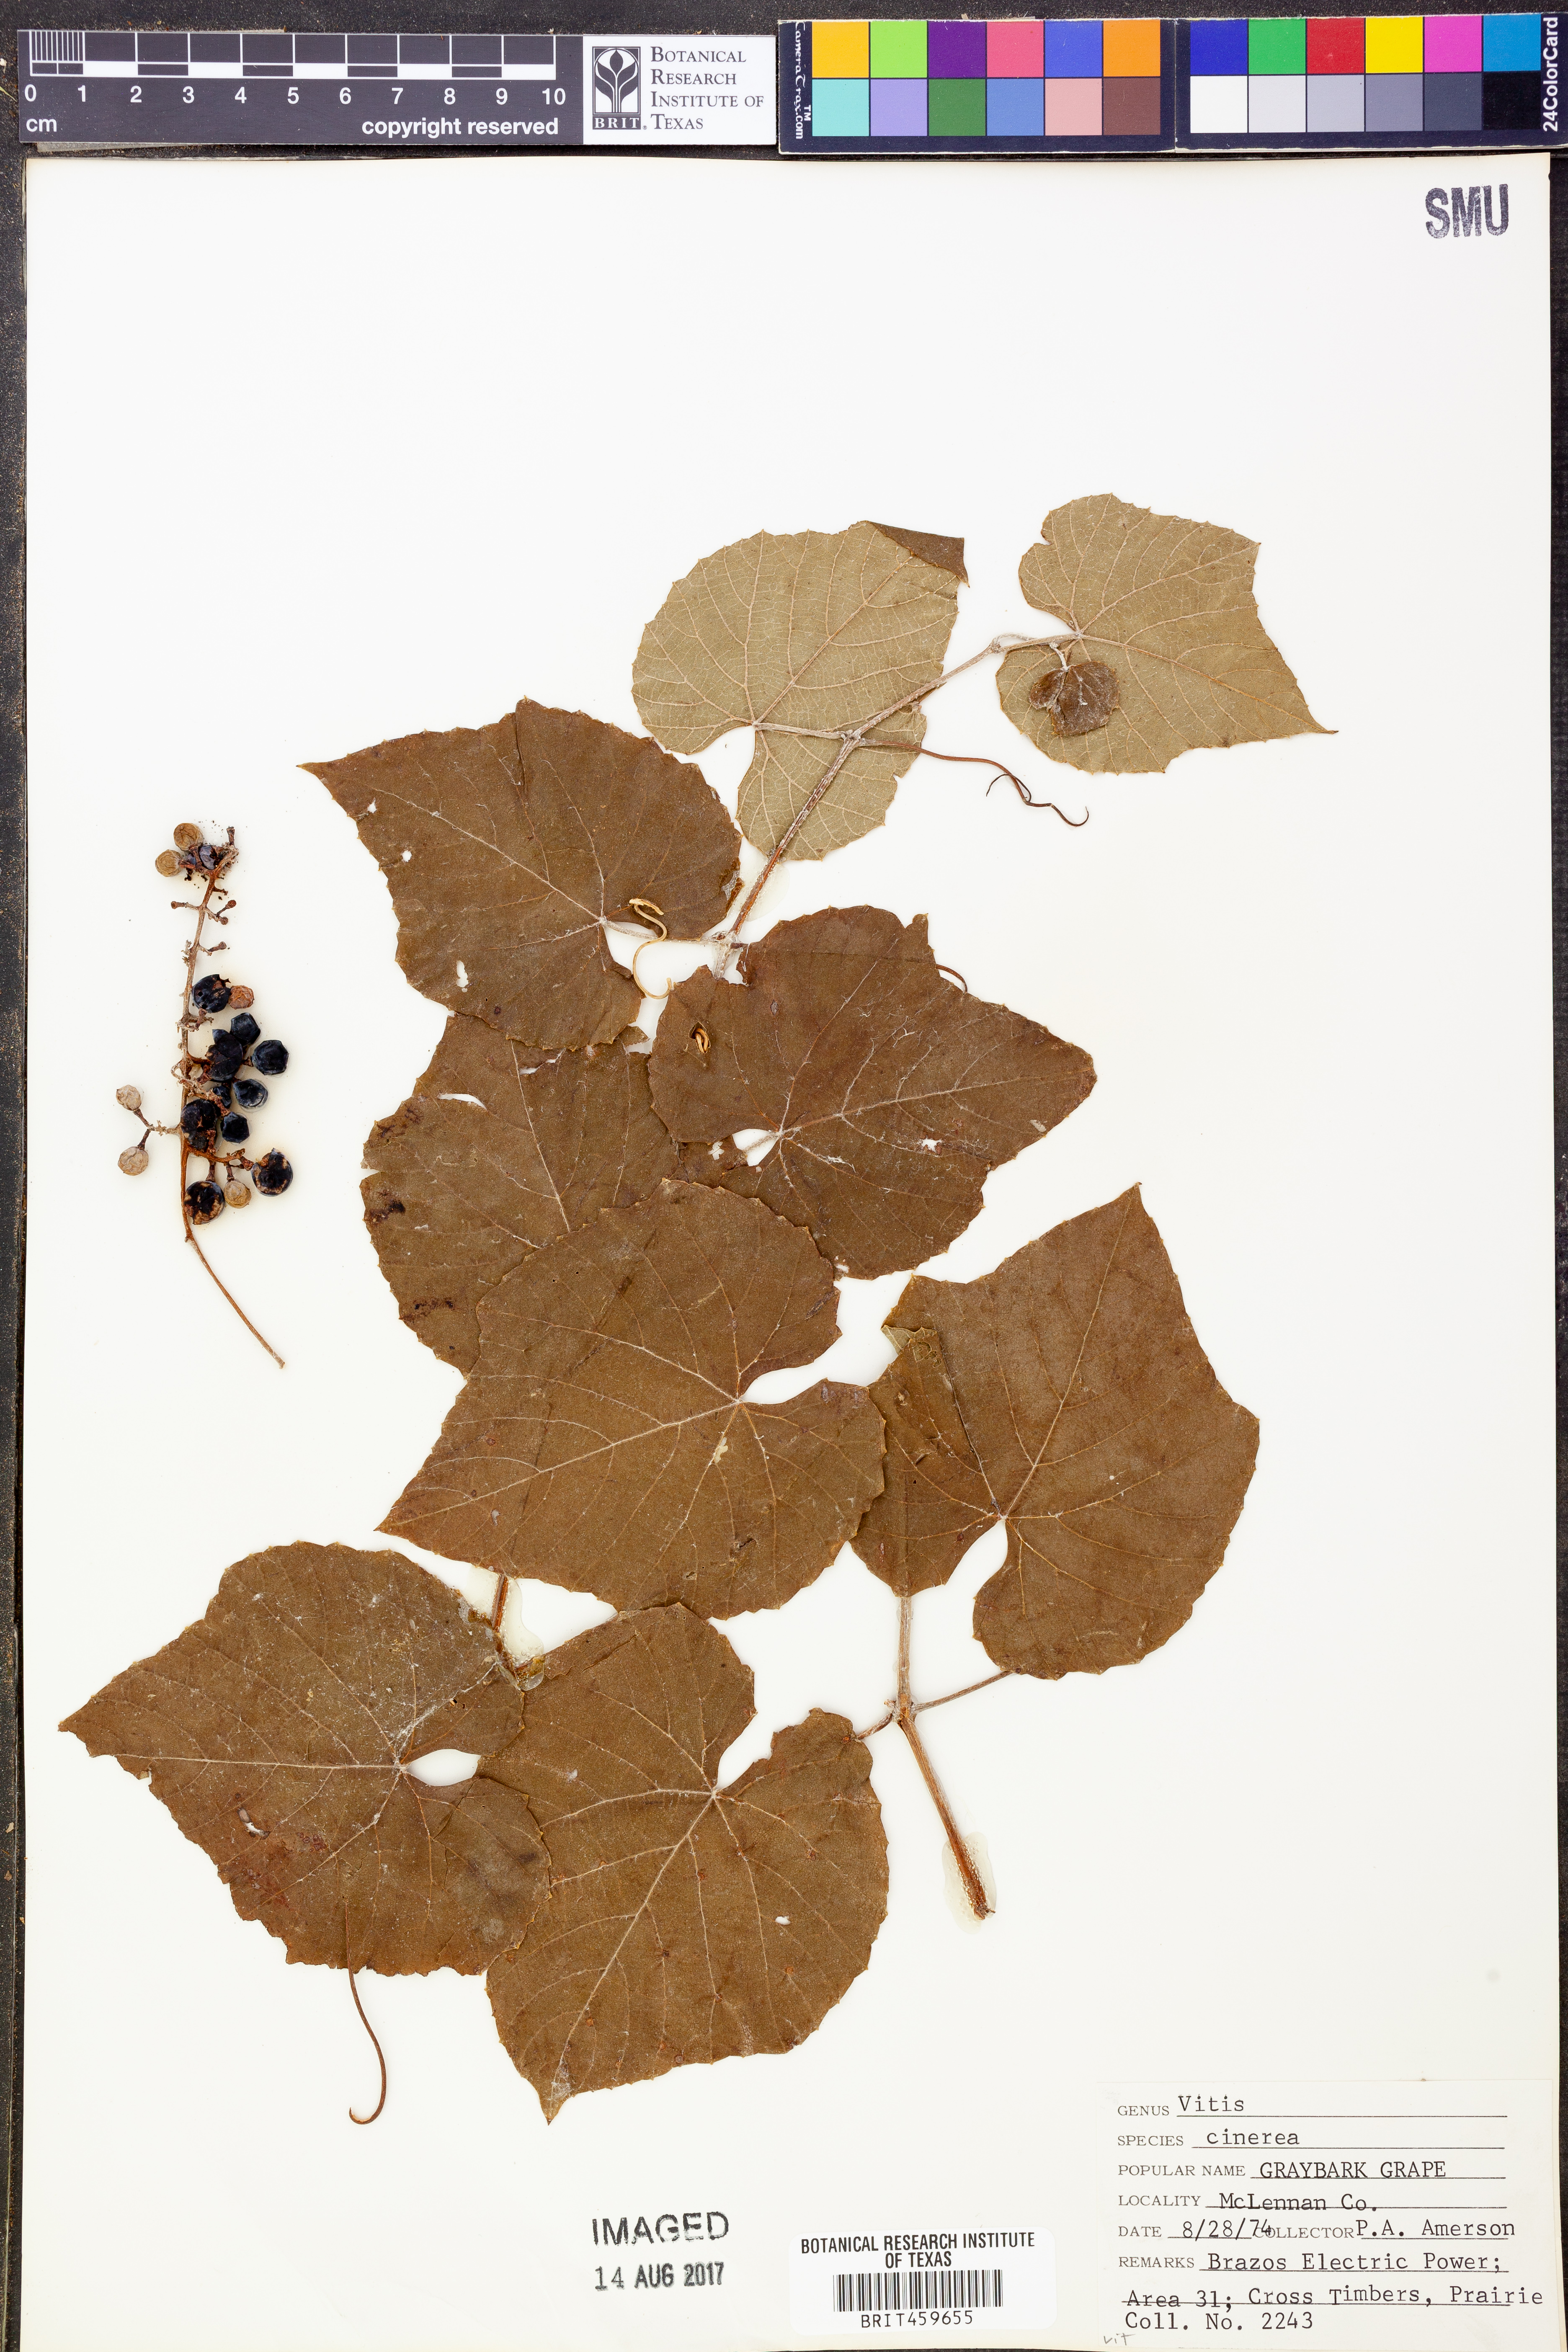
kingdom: Plantae
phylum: Tracheophyta
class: Magnoliopsida
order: Vitales
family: Vitaceae
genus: Vitis
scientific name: Vitis cinerea
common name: Ashy grape
